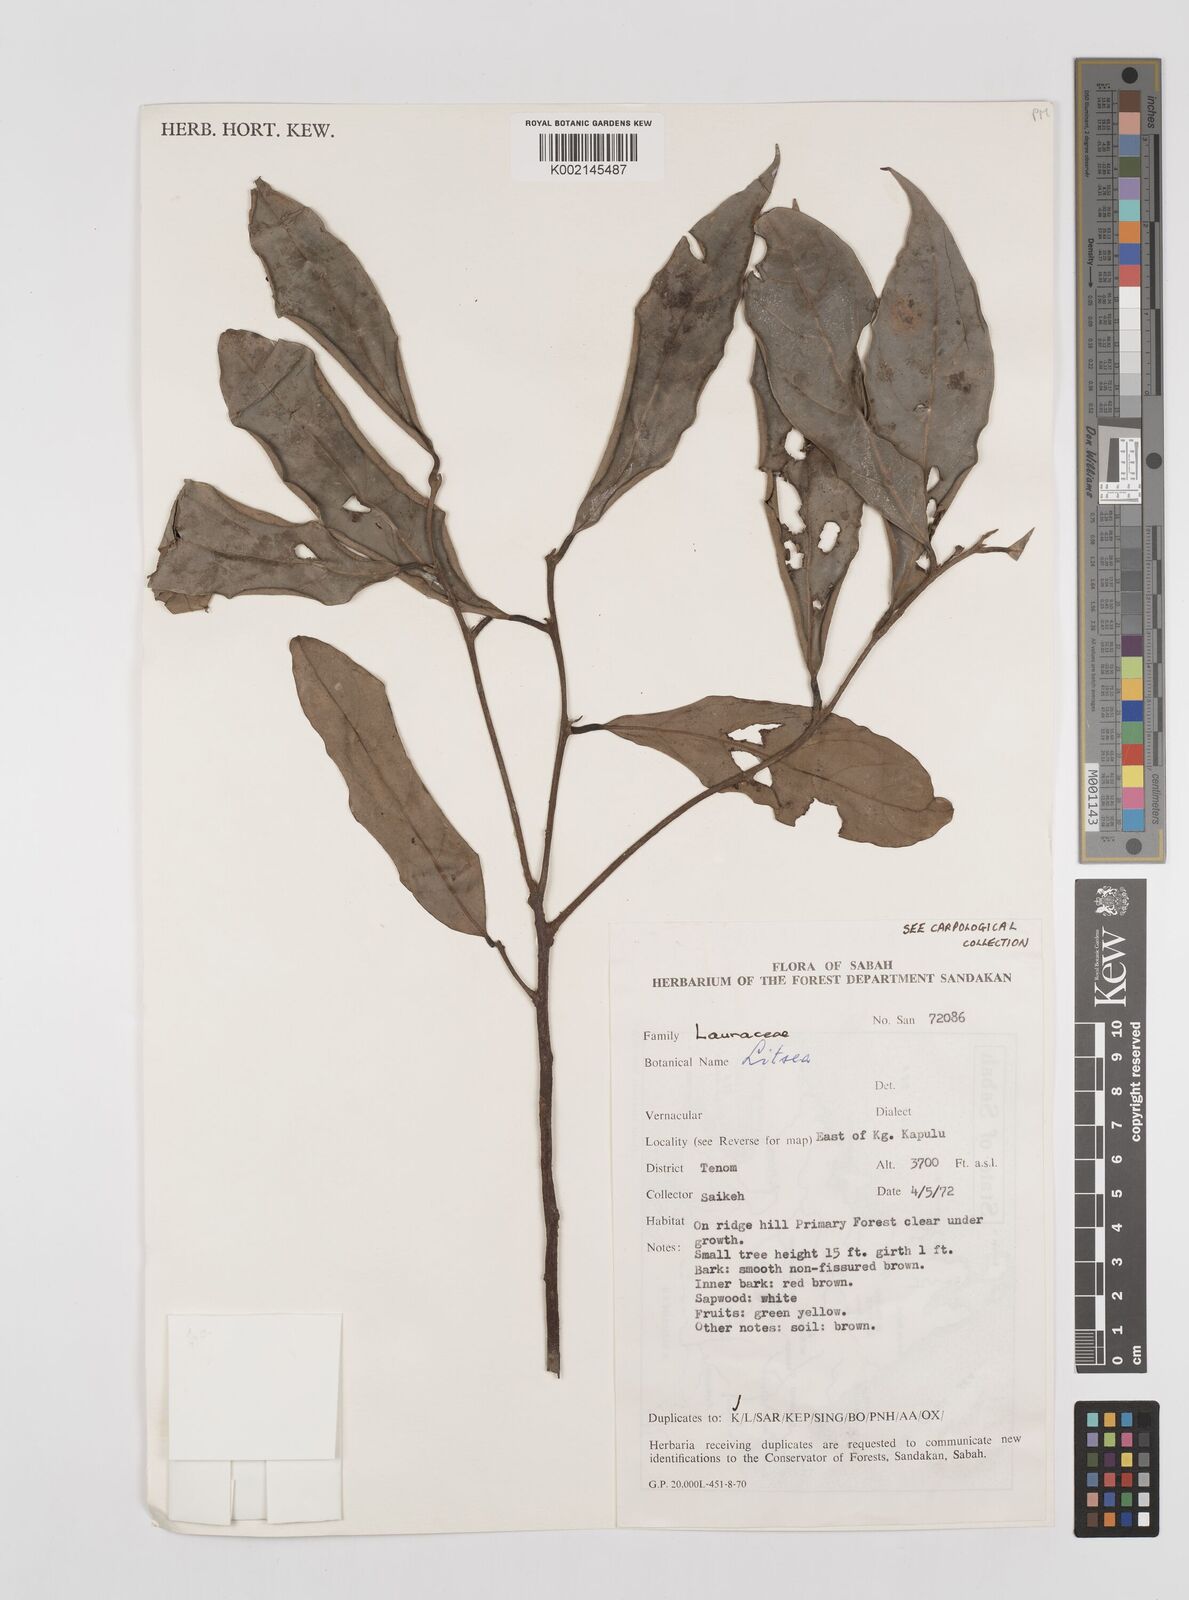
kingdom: Plantae
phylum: Tracheophyta
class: Magnoliopsida
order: Laurales
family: Lauraceae
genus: Litsea
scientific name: Litsea
